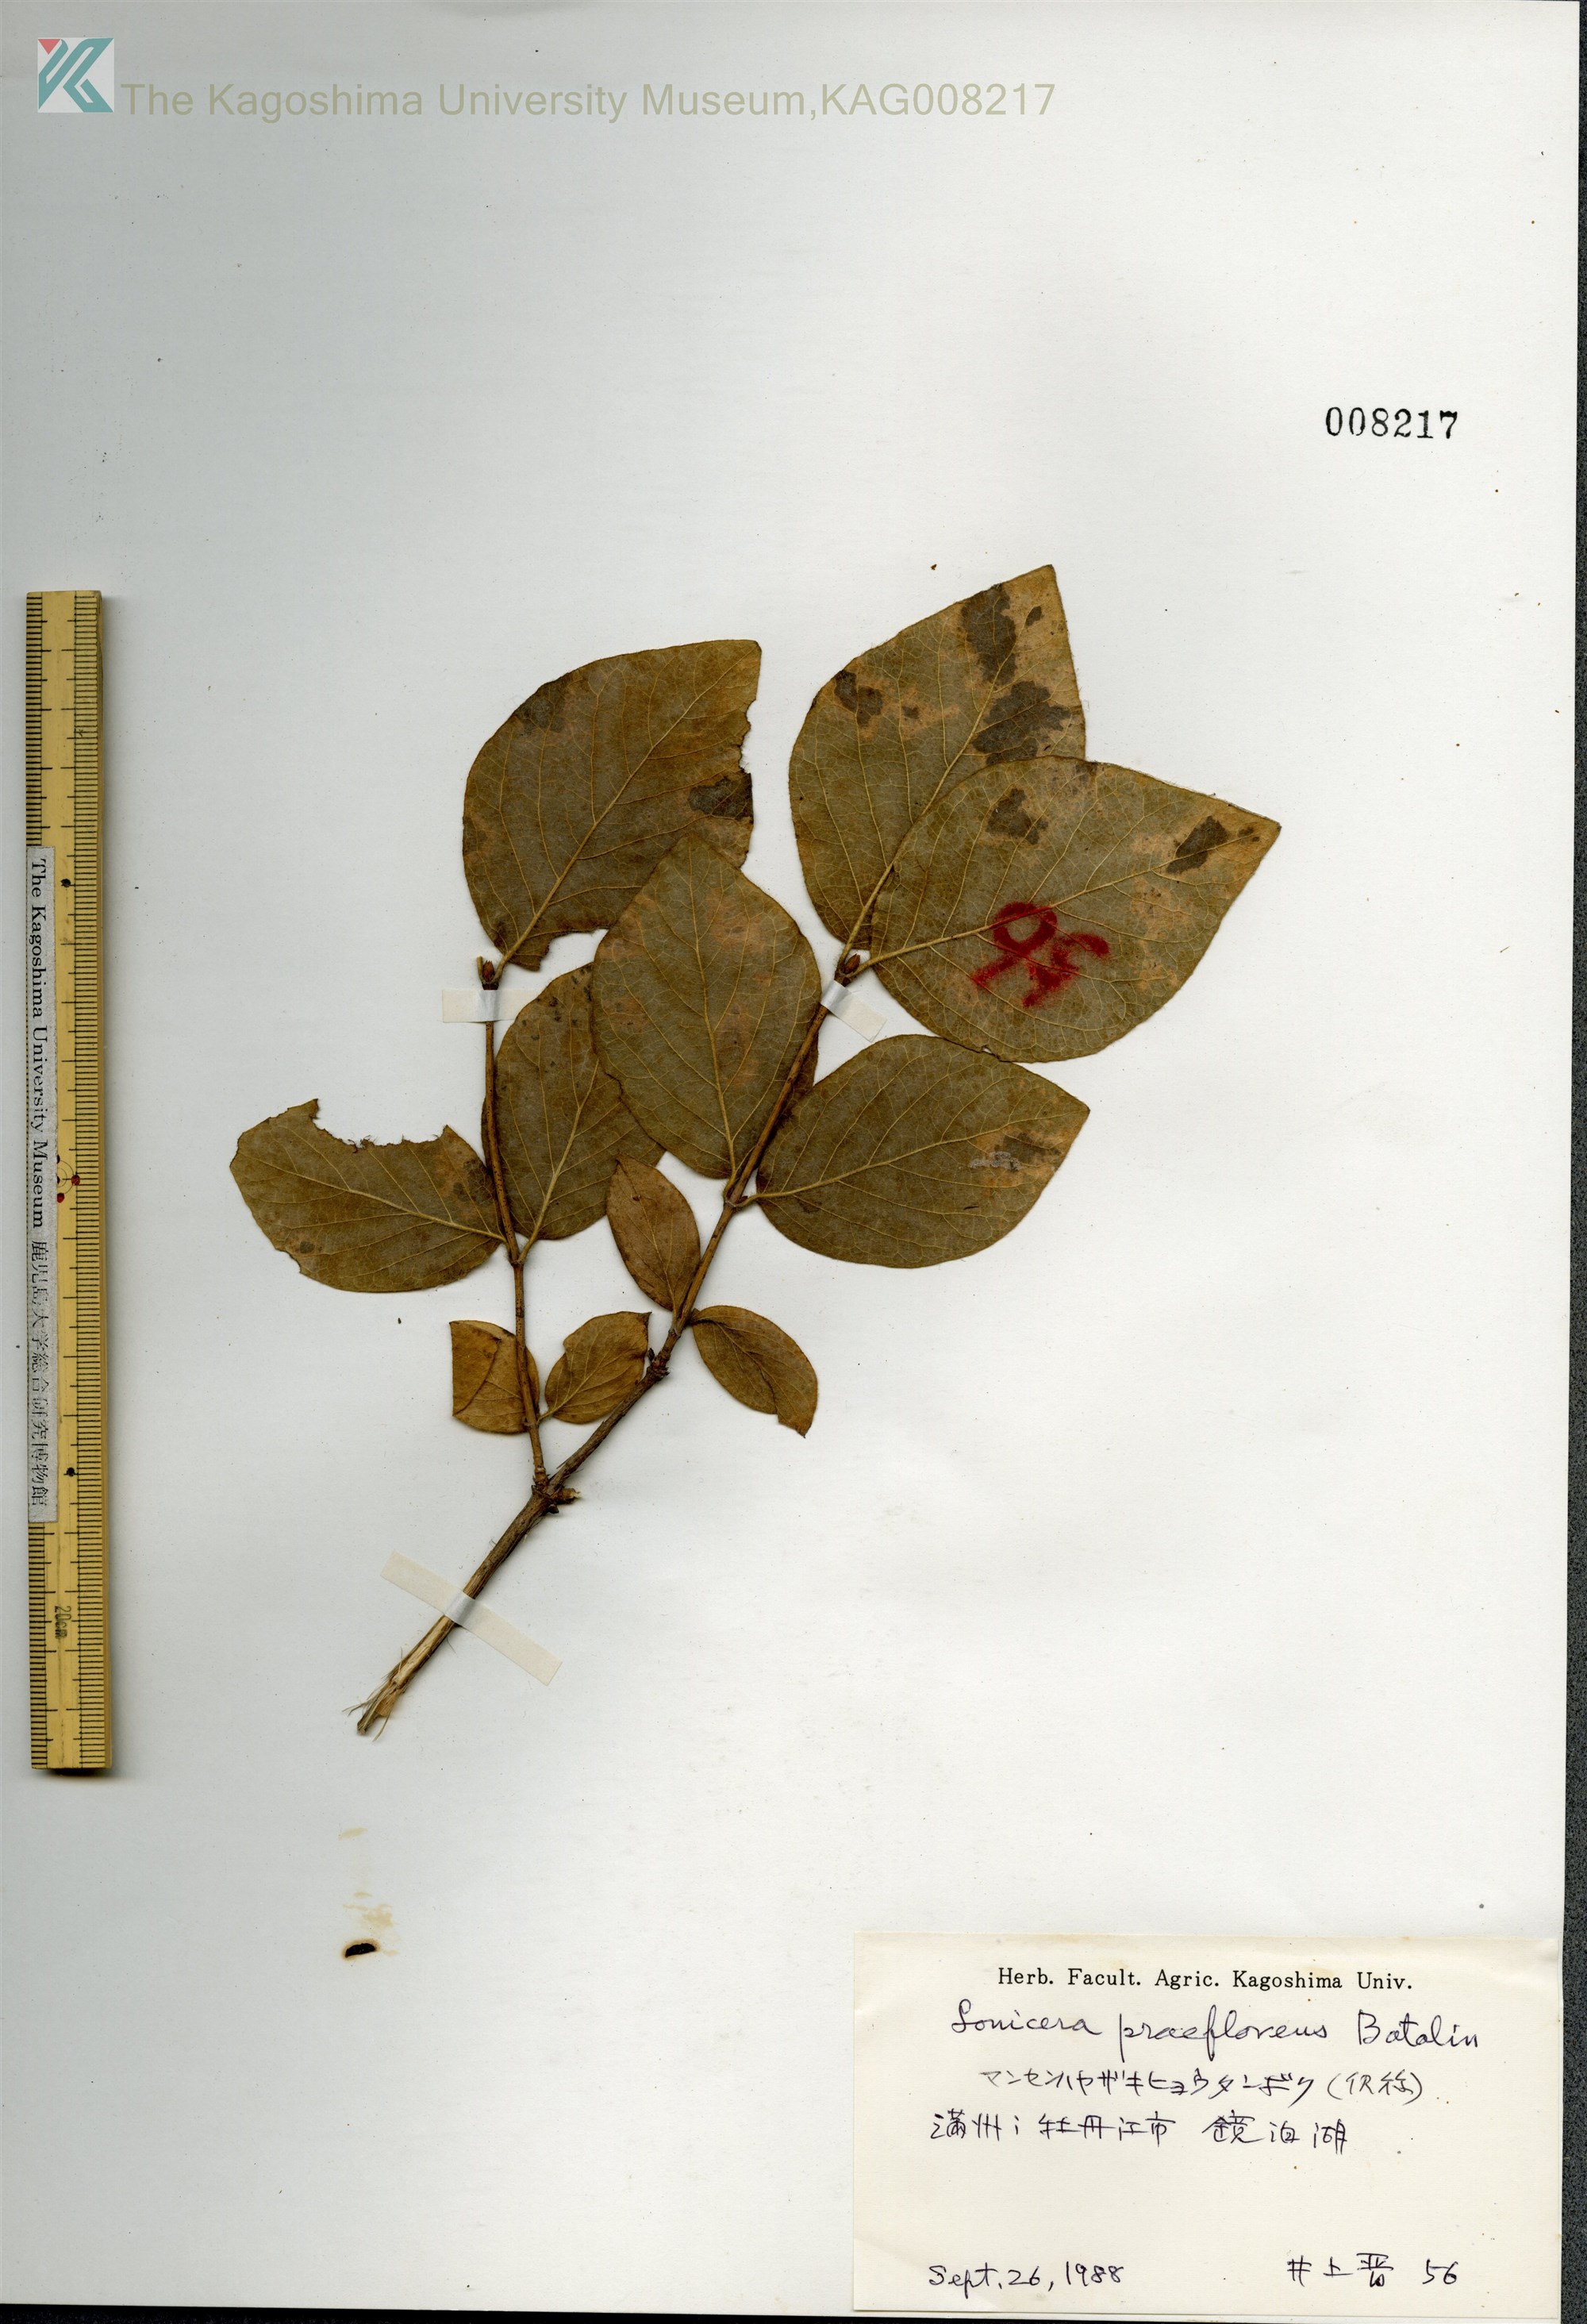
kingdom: Plantae
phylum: Tracheophyta
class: Magnoliopsida
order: Dipsacales
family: Caprifoliaceae
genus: Lonicera
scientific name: Lonicera praeflorens
